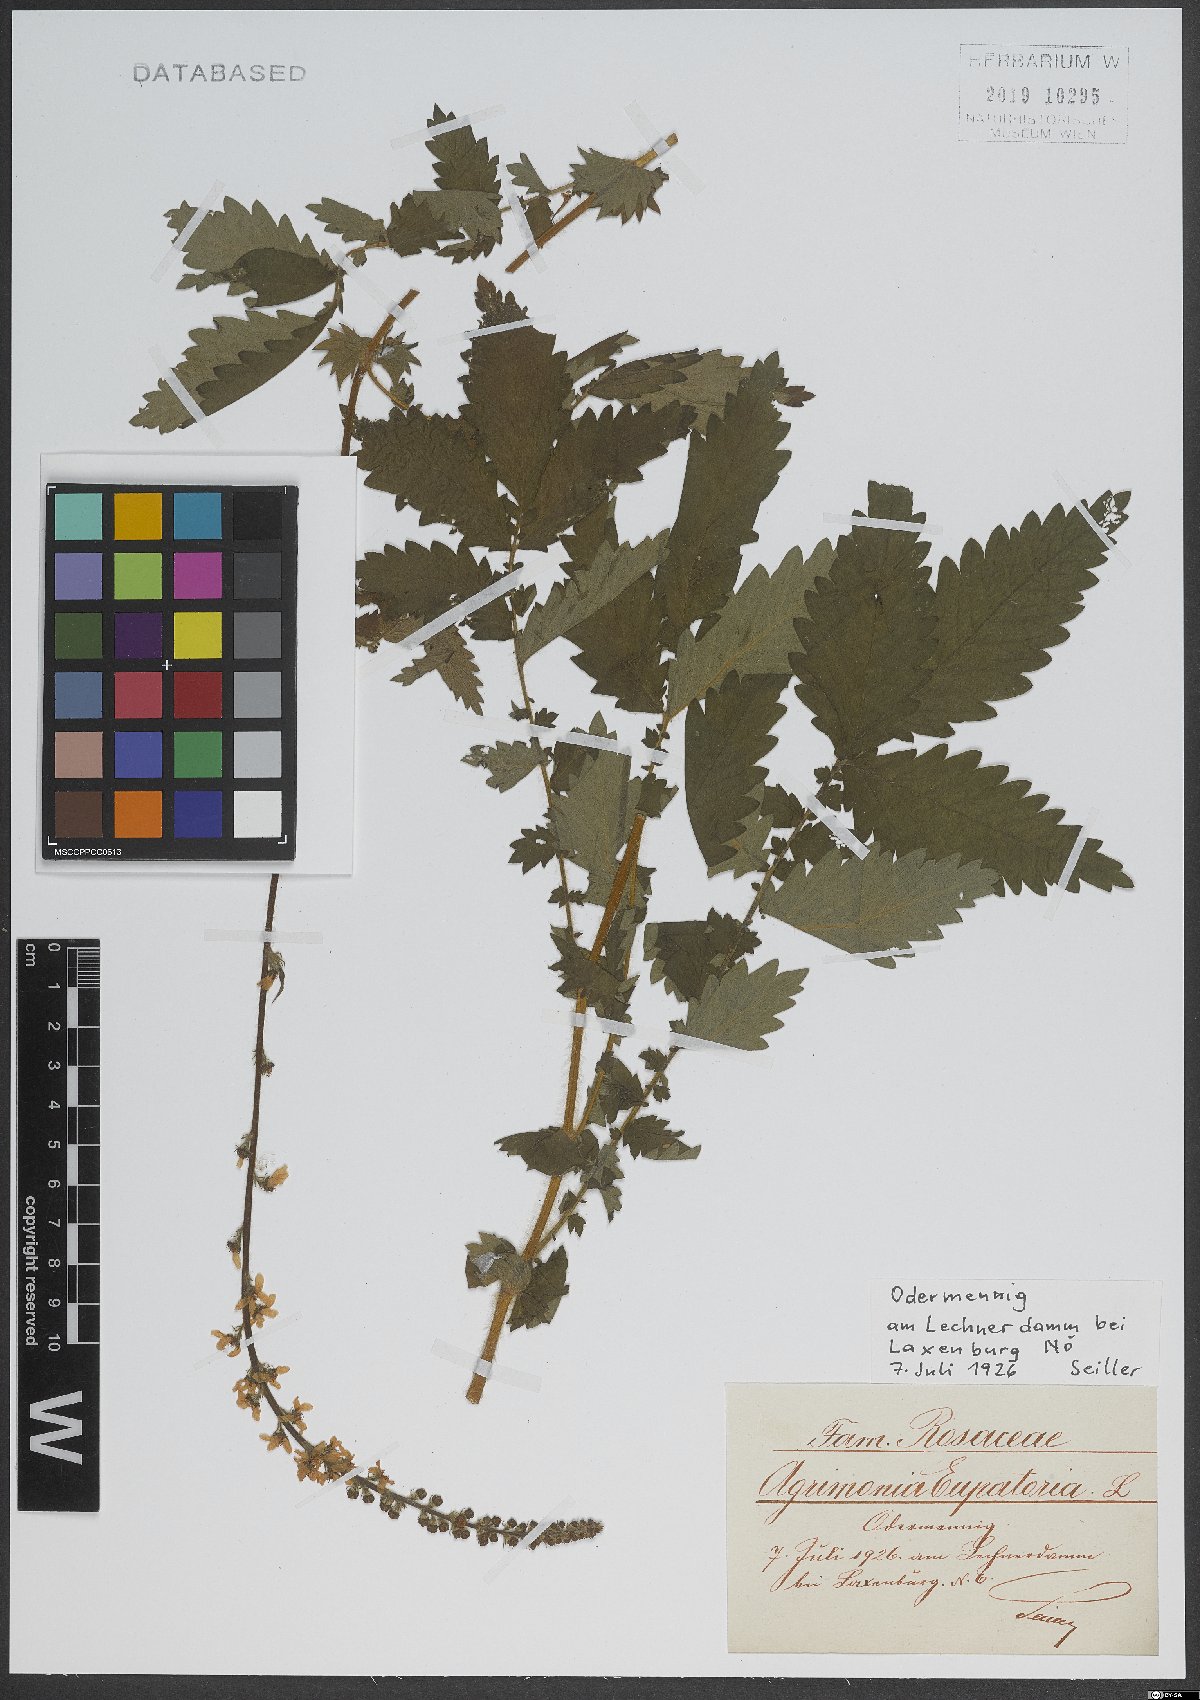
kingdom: Plantae
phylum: Tracheophyta
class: Magnoliopsida
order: Rosales
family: Rosaceae
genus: Agrimonia
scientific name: Agrimonia eupatoria
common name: Agrimony
